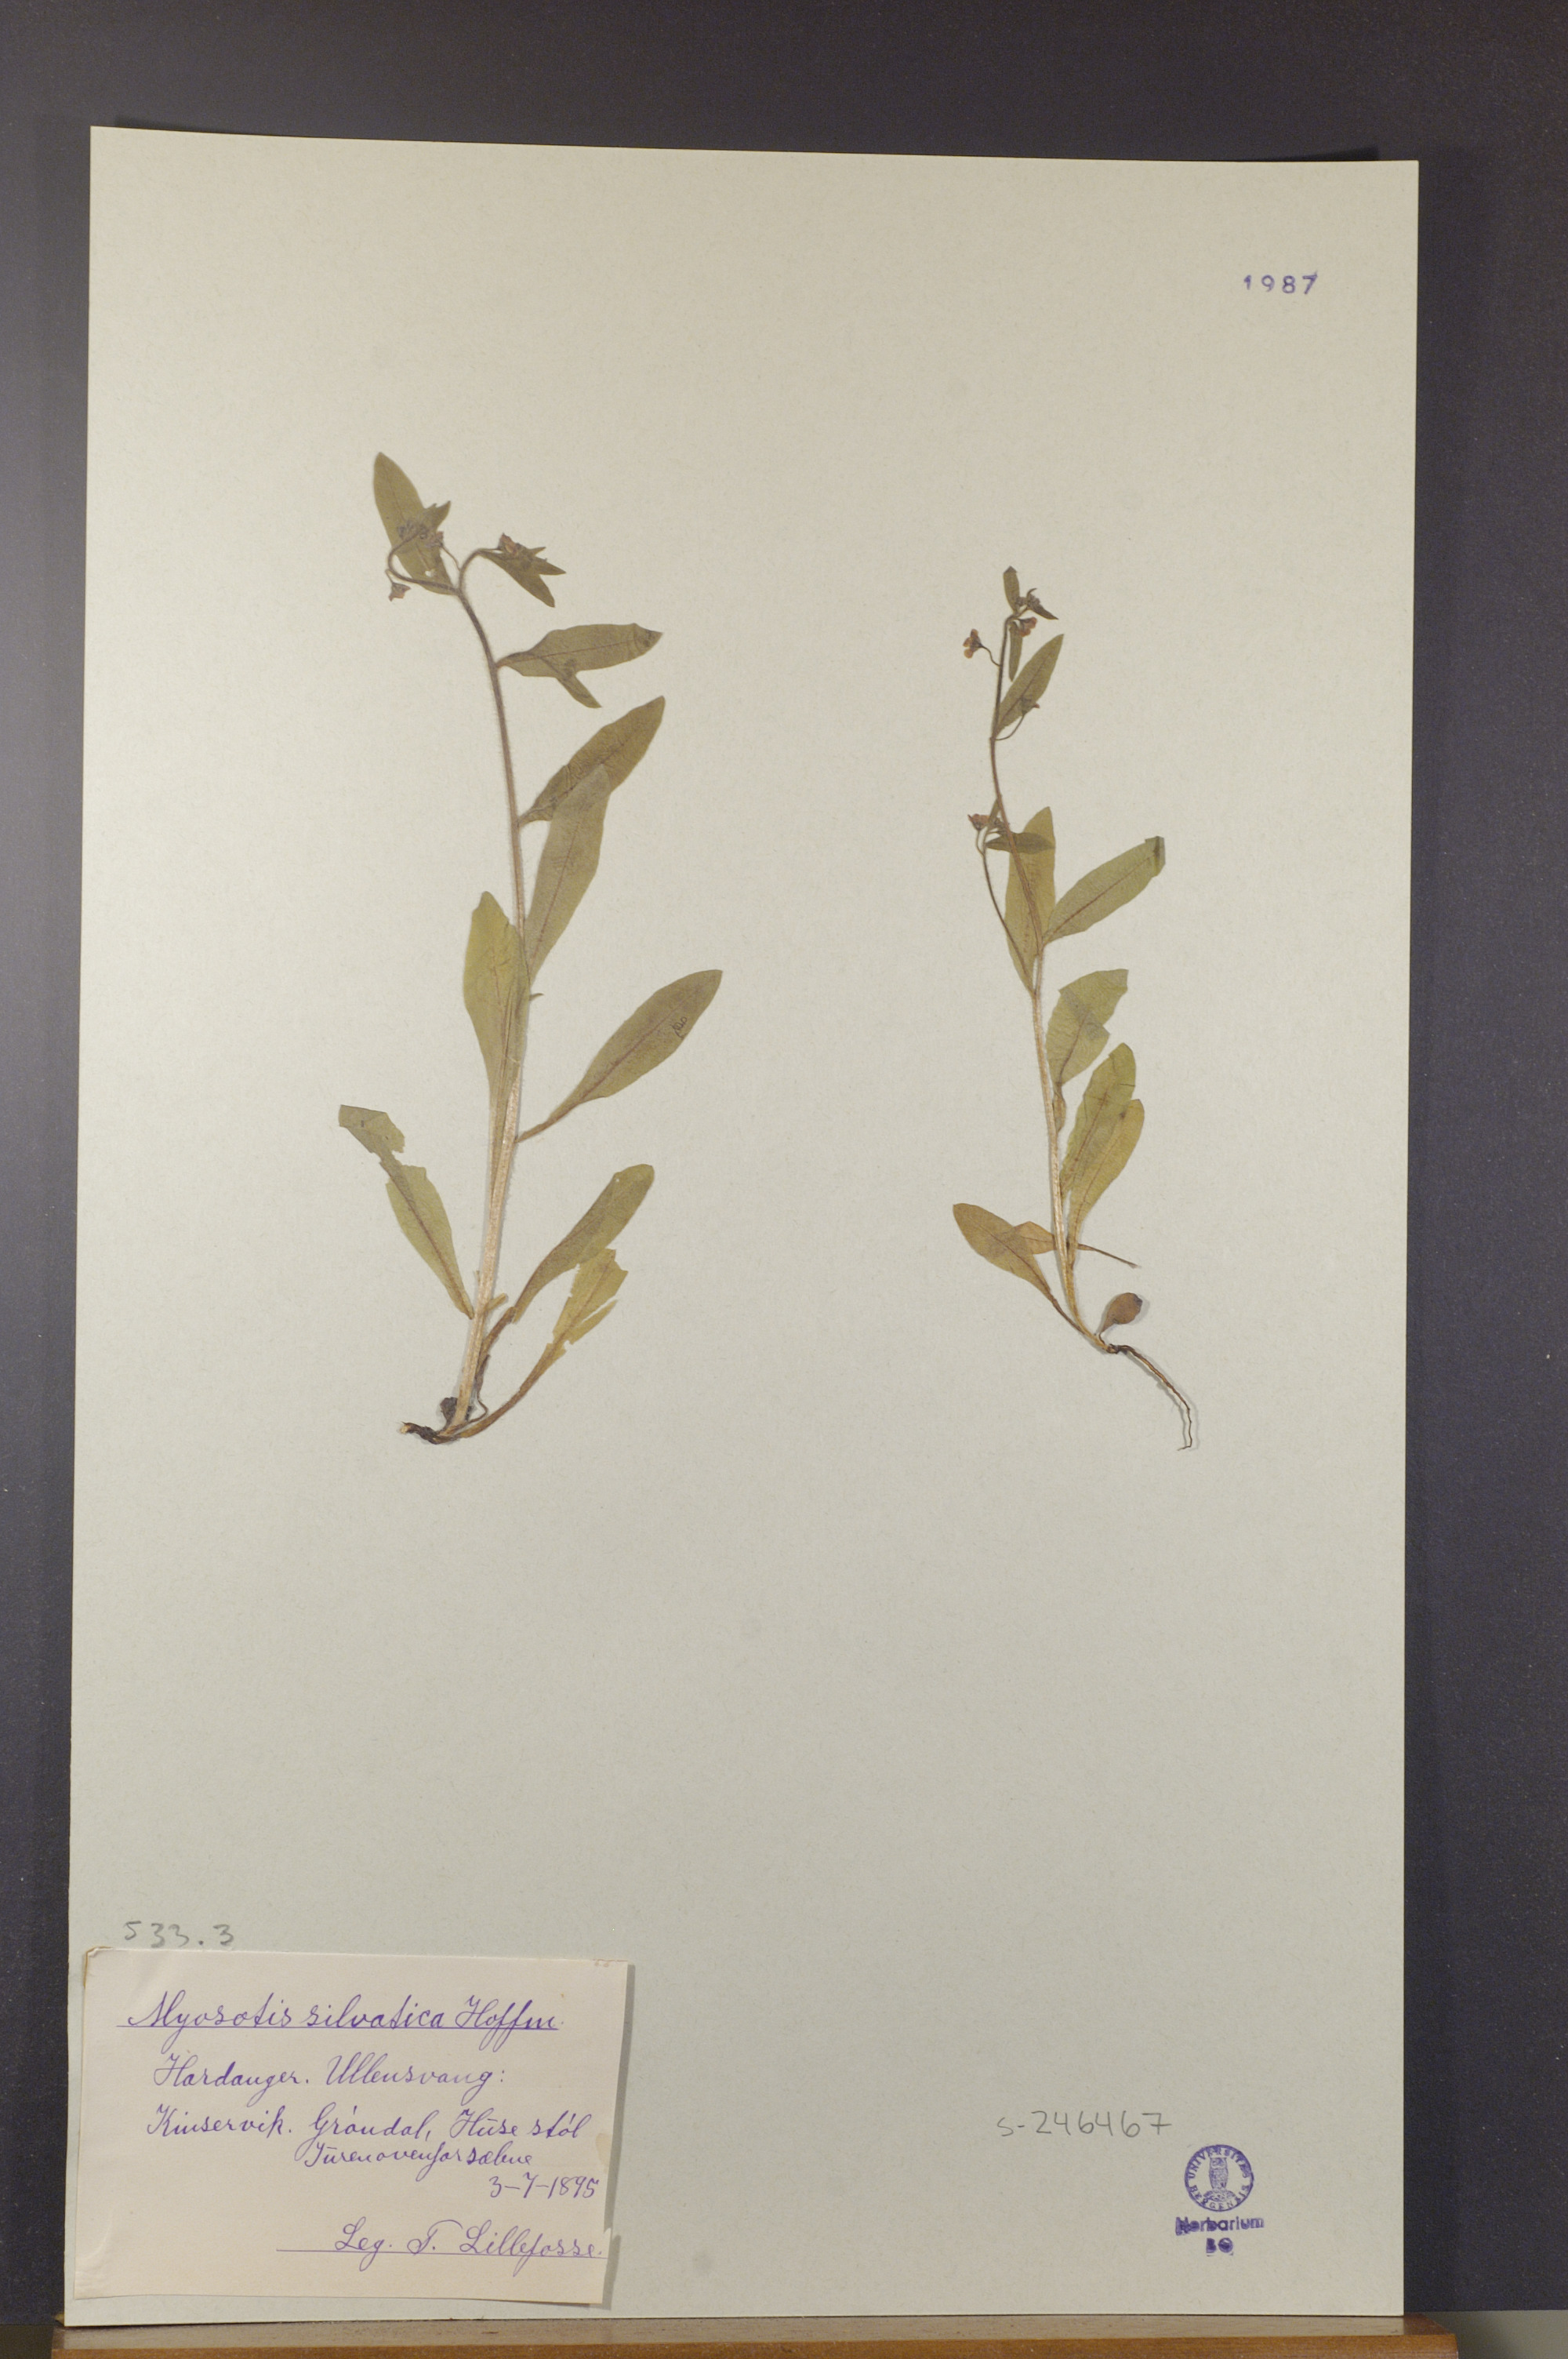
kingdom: Plantae
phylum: Tracheophyta
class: Magnoliopsida
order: Boraginales
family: Boraginaceae
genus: Myosotis
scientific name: Myosotis
